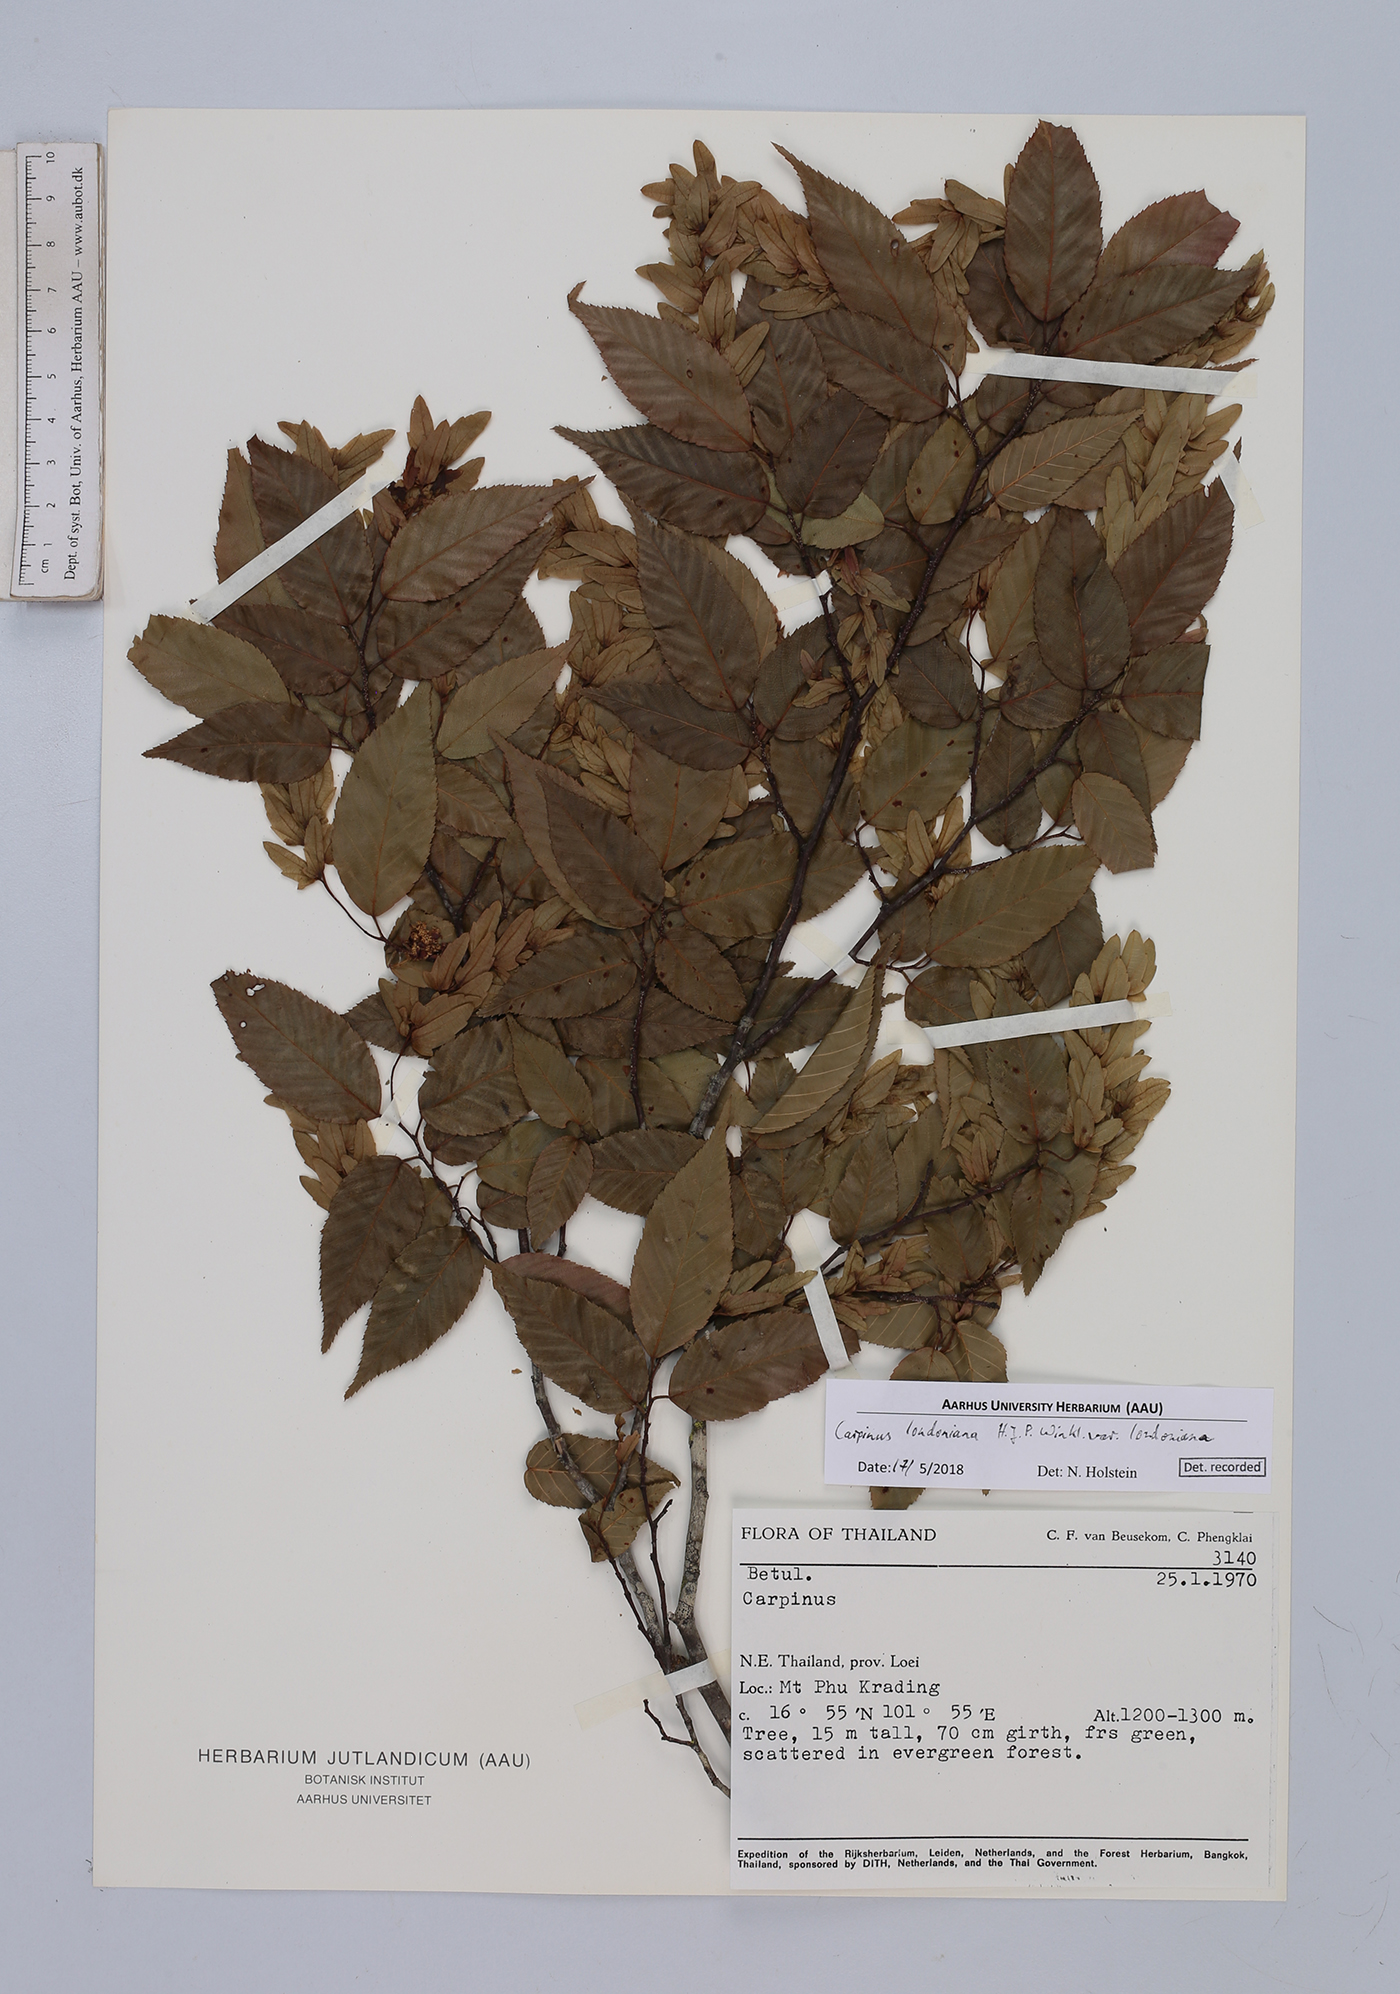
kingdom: Plantae
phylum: Tracheophyta
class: Magnoliopsida
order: Fagales
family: Betulaceae
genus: Carpinus
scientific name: Carpinus londoniana
